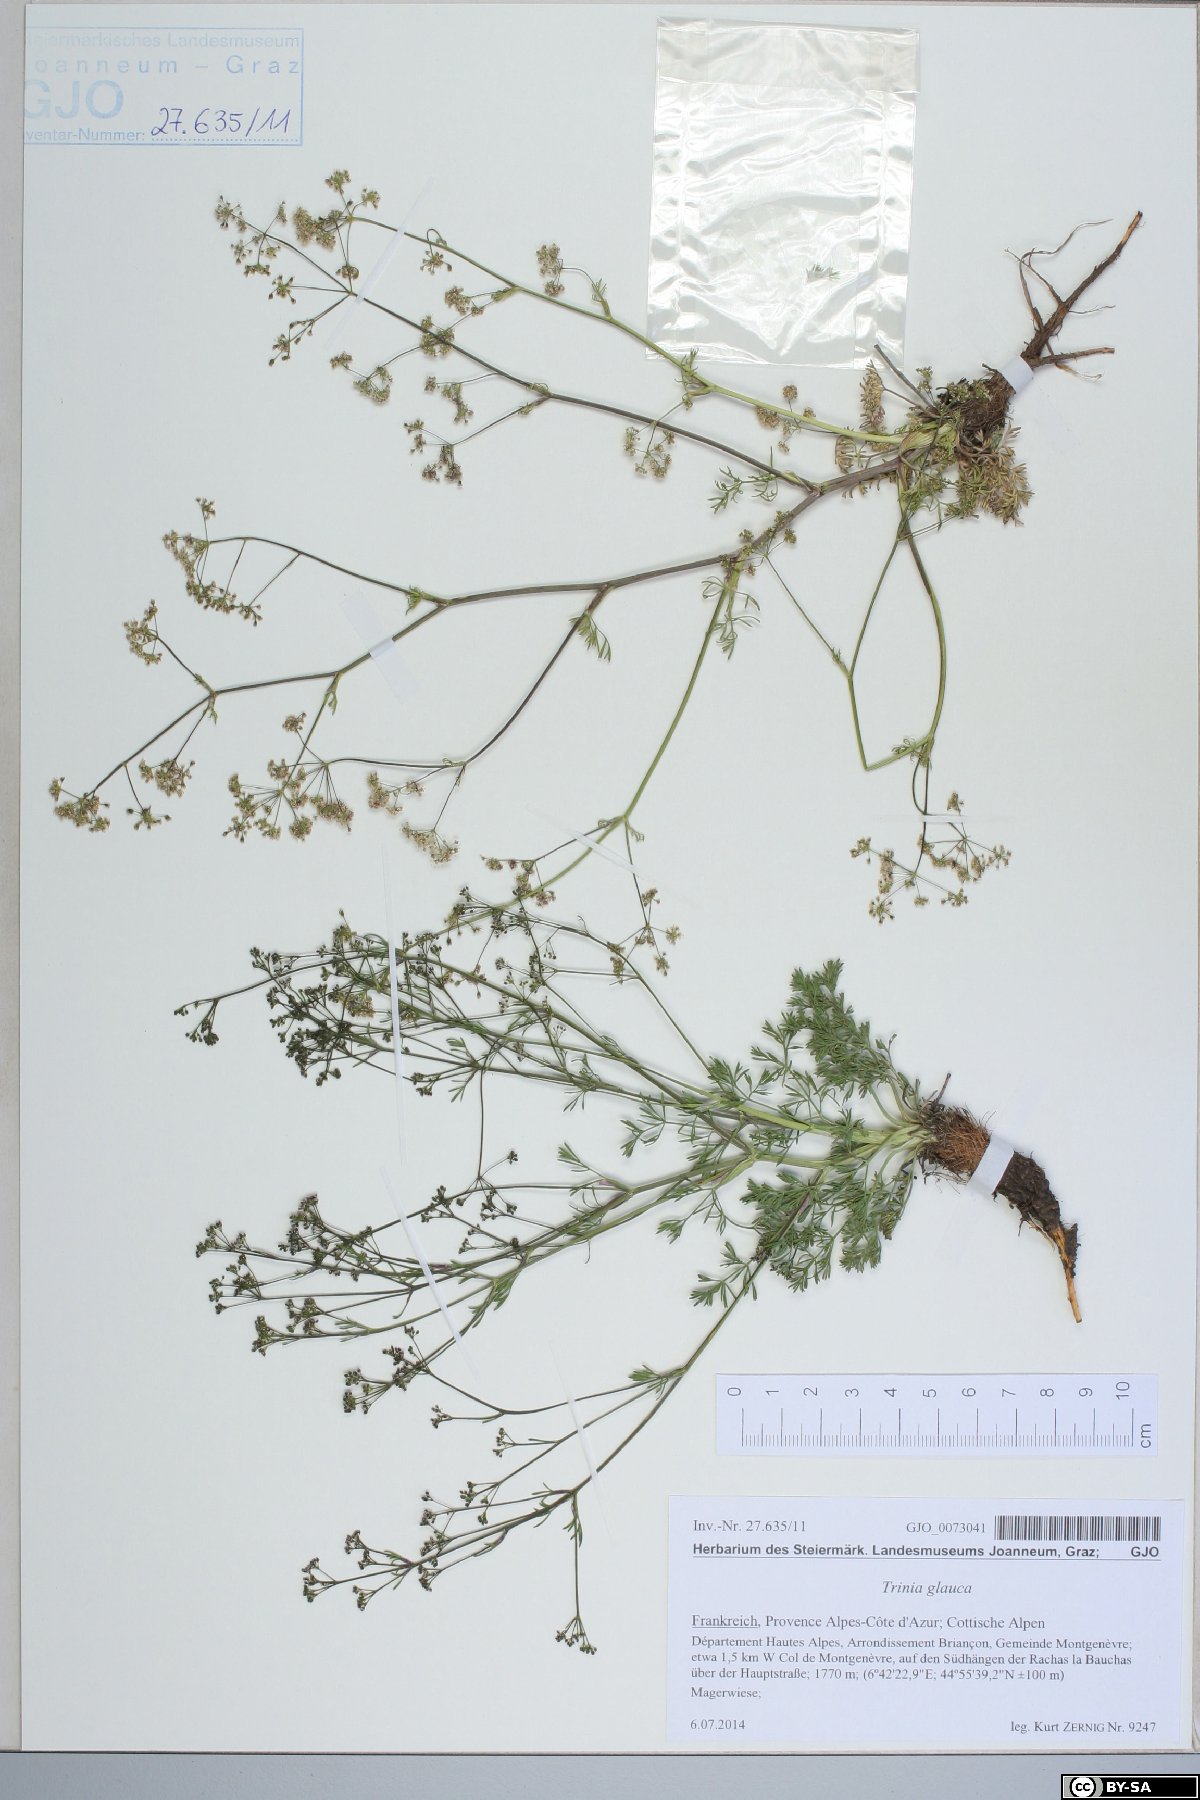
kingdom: Plantae
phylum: Tracheophyta
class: Magnoliopsida
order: Apiales
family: Apiaceae
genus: Trinia
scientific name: Trinia glauca
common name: Honewort
